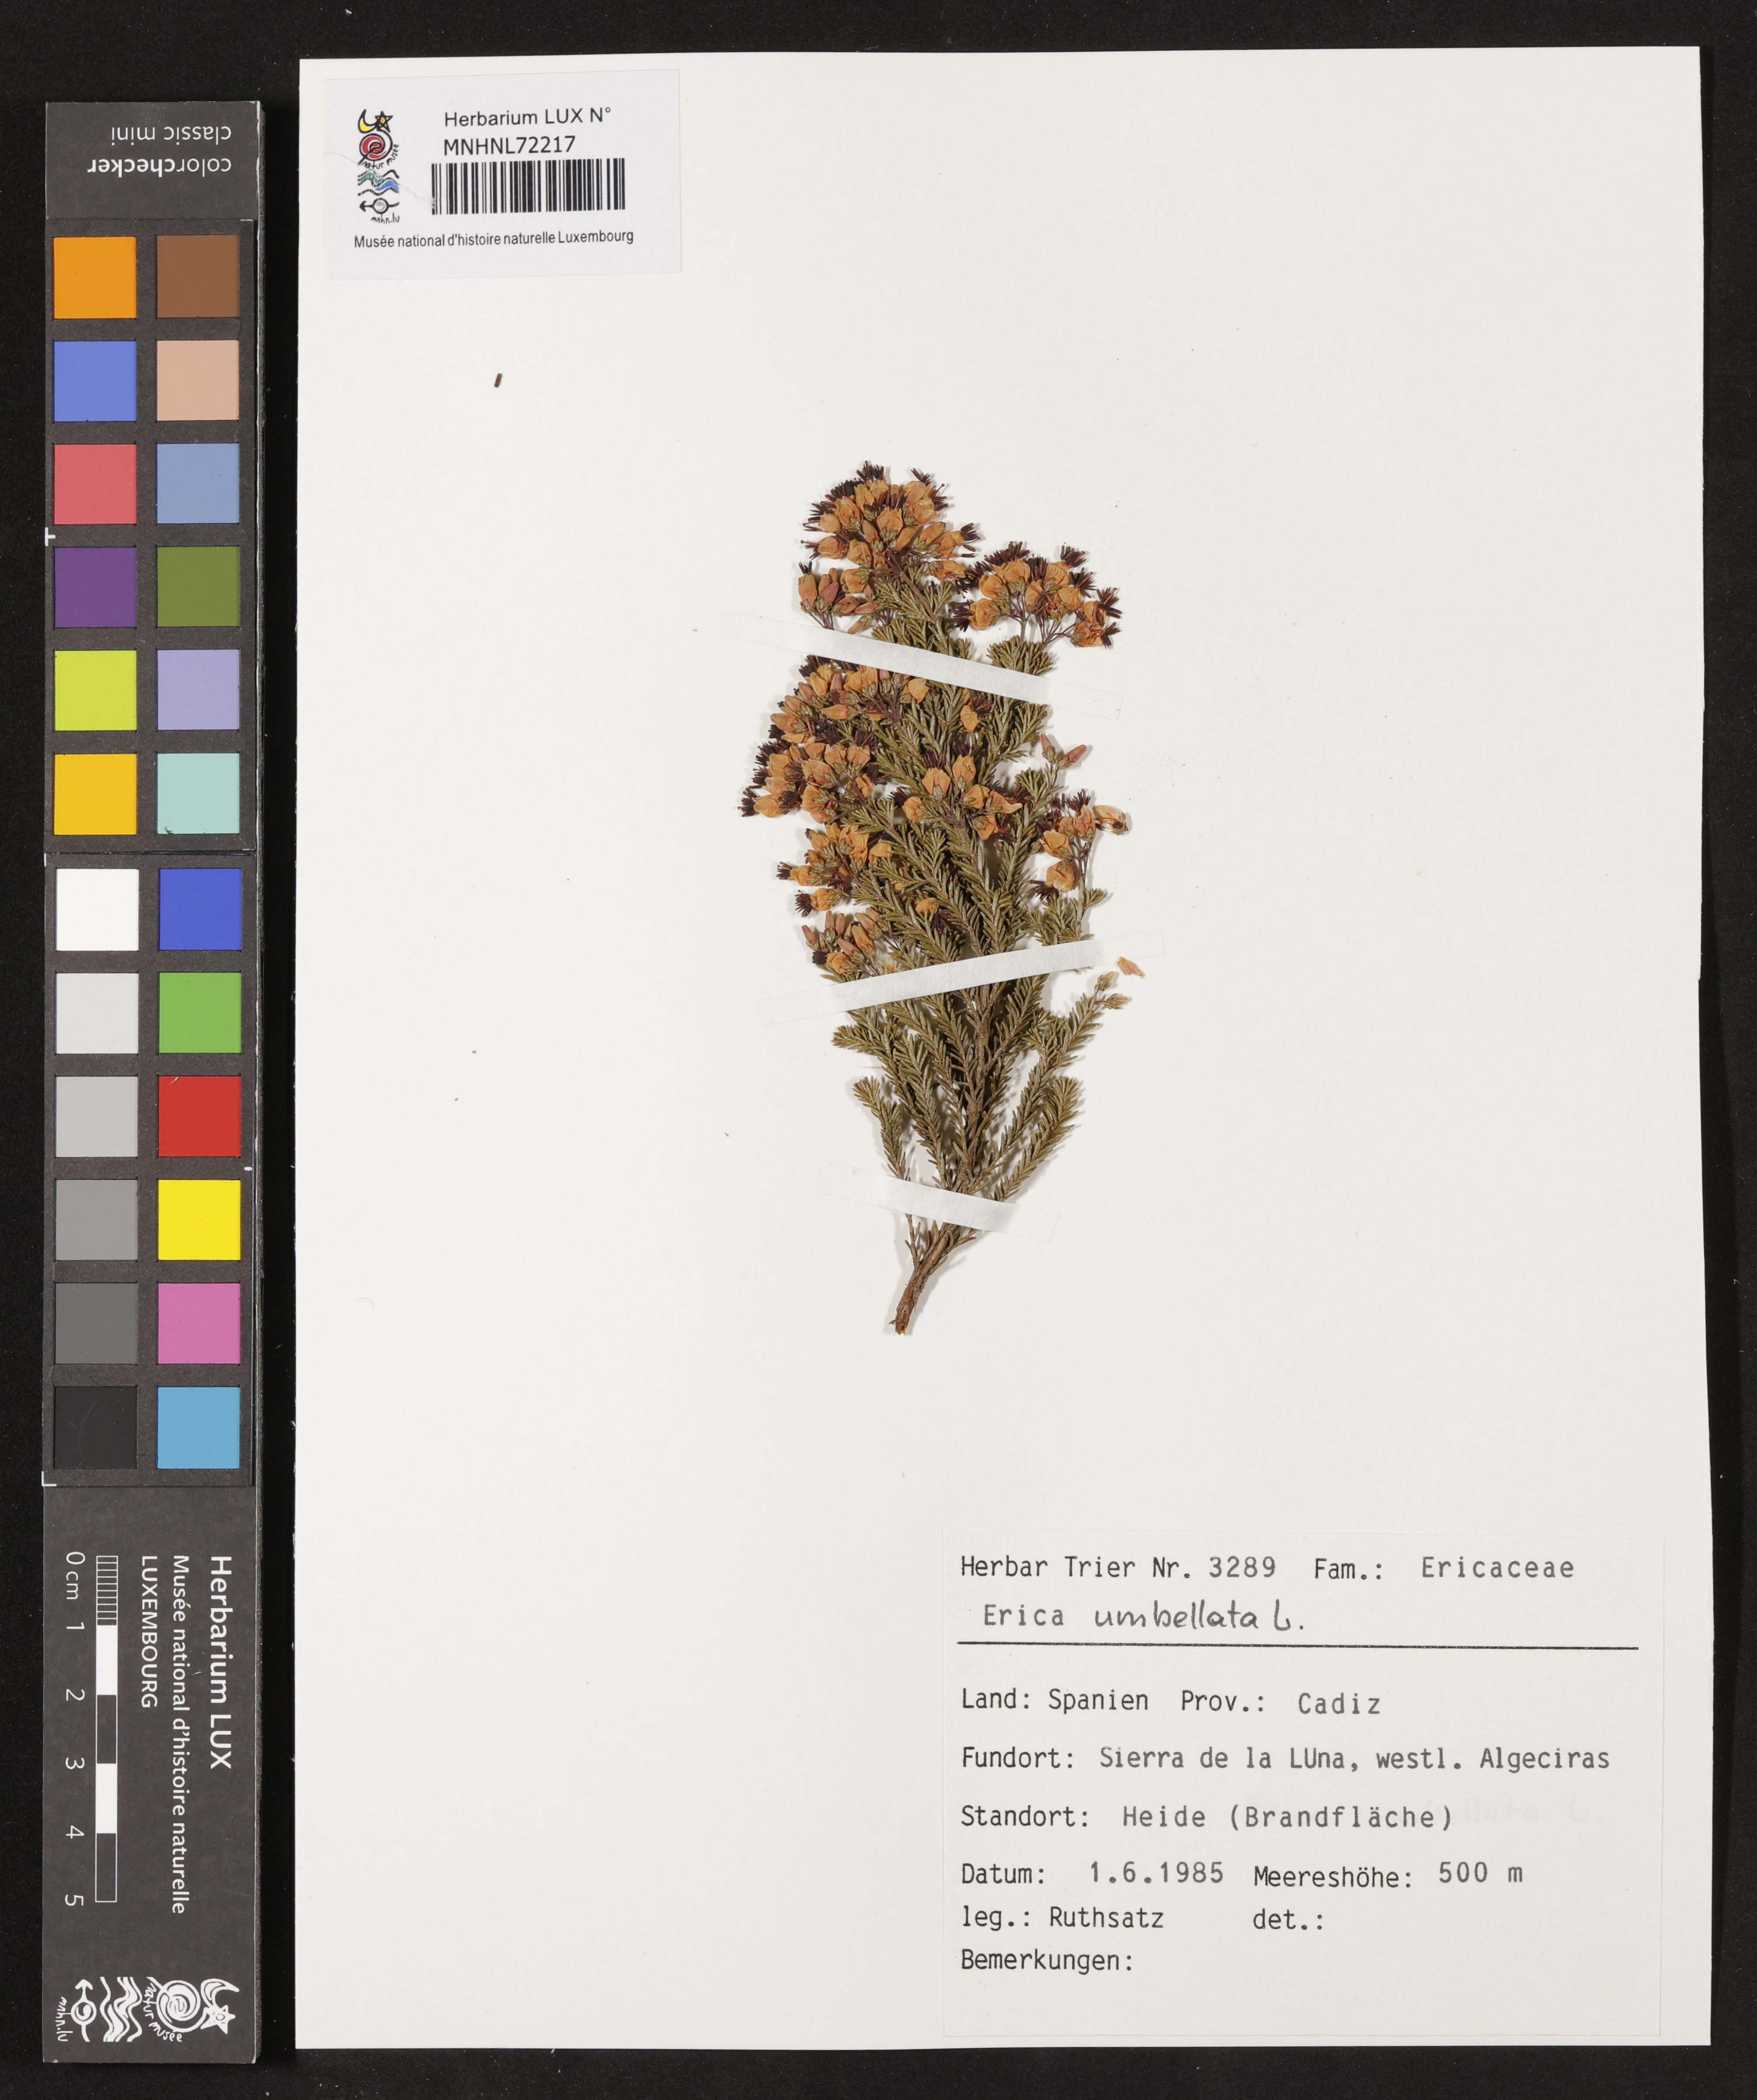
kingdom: Plantae
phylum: Tracheophyta
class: Magnoliopsida
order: Ericales
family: Ericaceae
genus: Erica
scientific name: Erica umbellata
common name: Dwarf spanish heath
